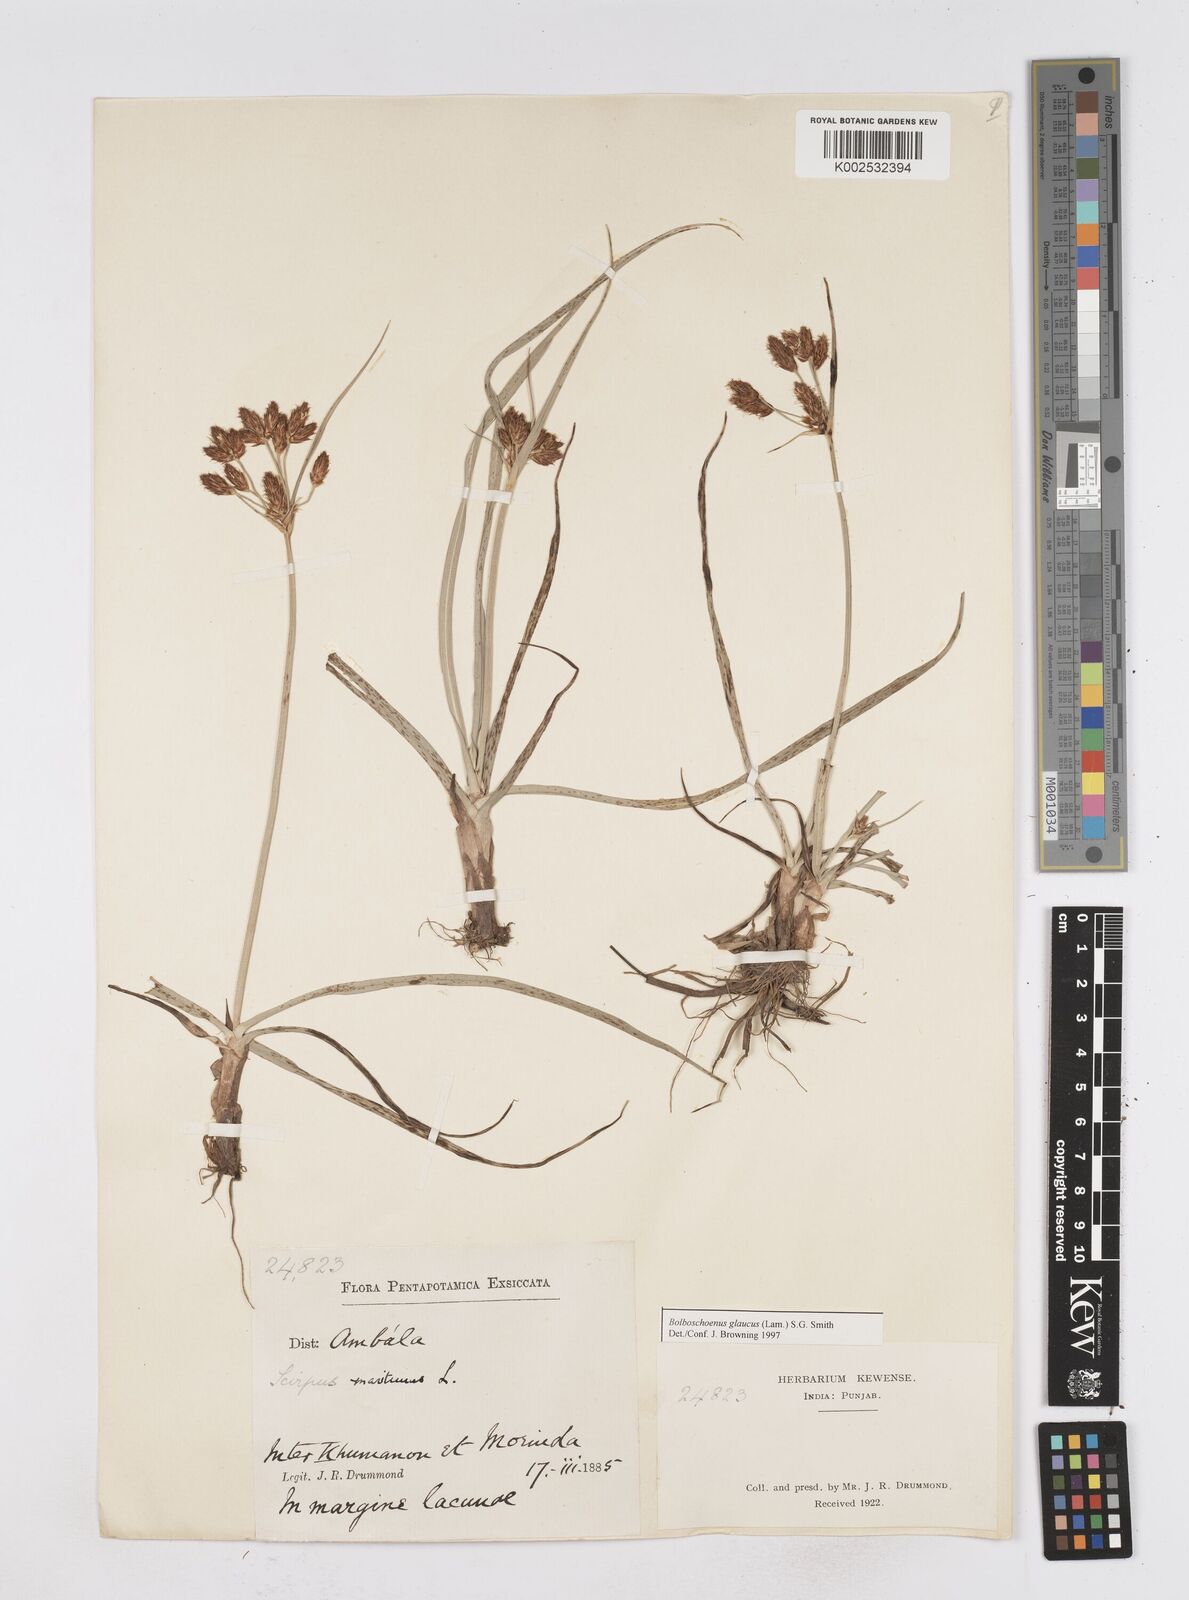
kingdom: Plantae
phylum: Tracheophyta
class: Liliopsida
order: Poales
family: Cyperaceae
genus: Bolboschoenus
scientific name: Bolboschoenus maritimus
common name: Sea club-rush
